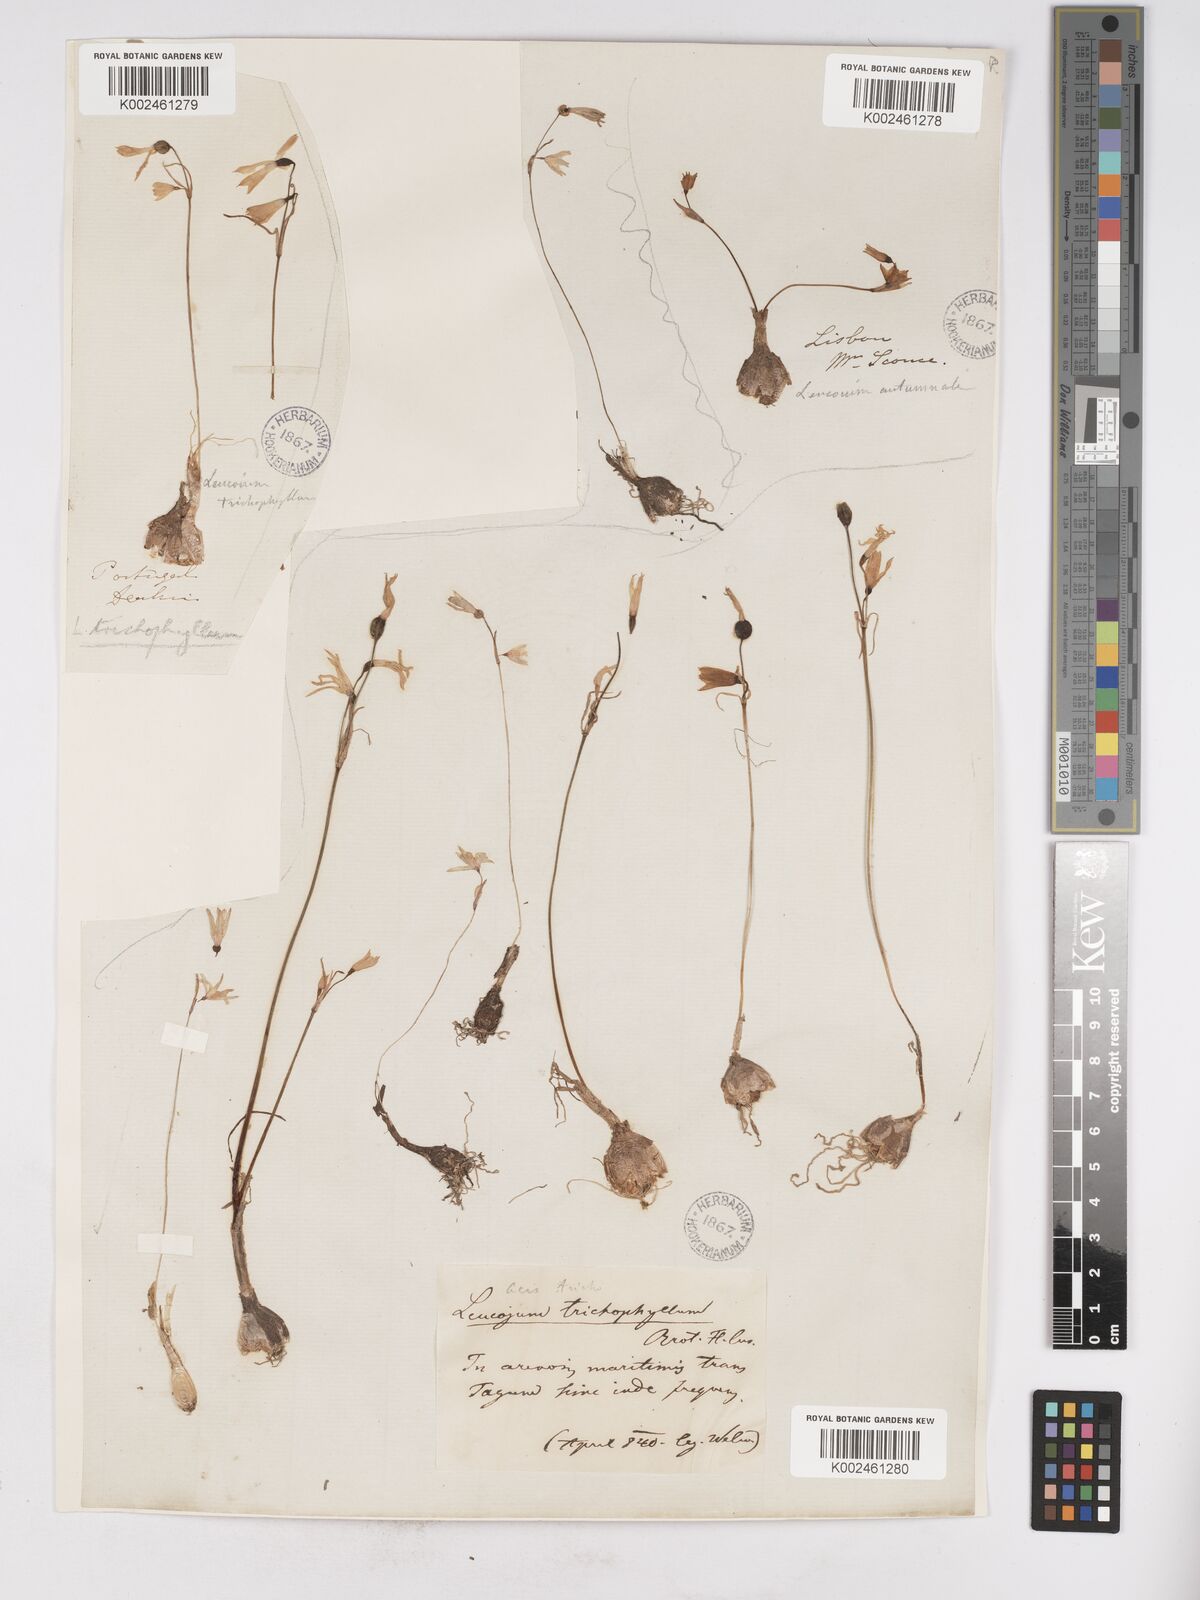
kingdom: Plantae
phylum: Tracheophyta
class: Liliopsida
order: Asparagales
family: Amaryllidaceae
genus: Acis
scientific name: Acis trichophylla
